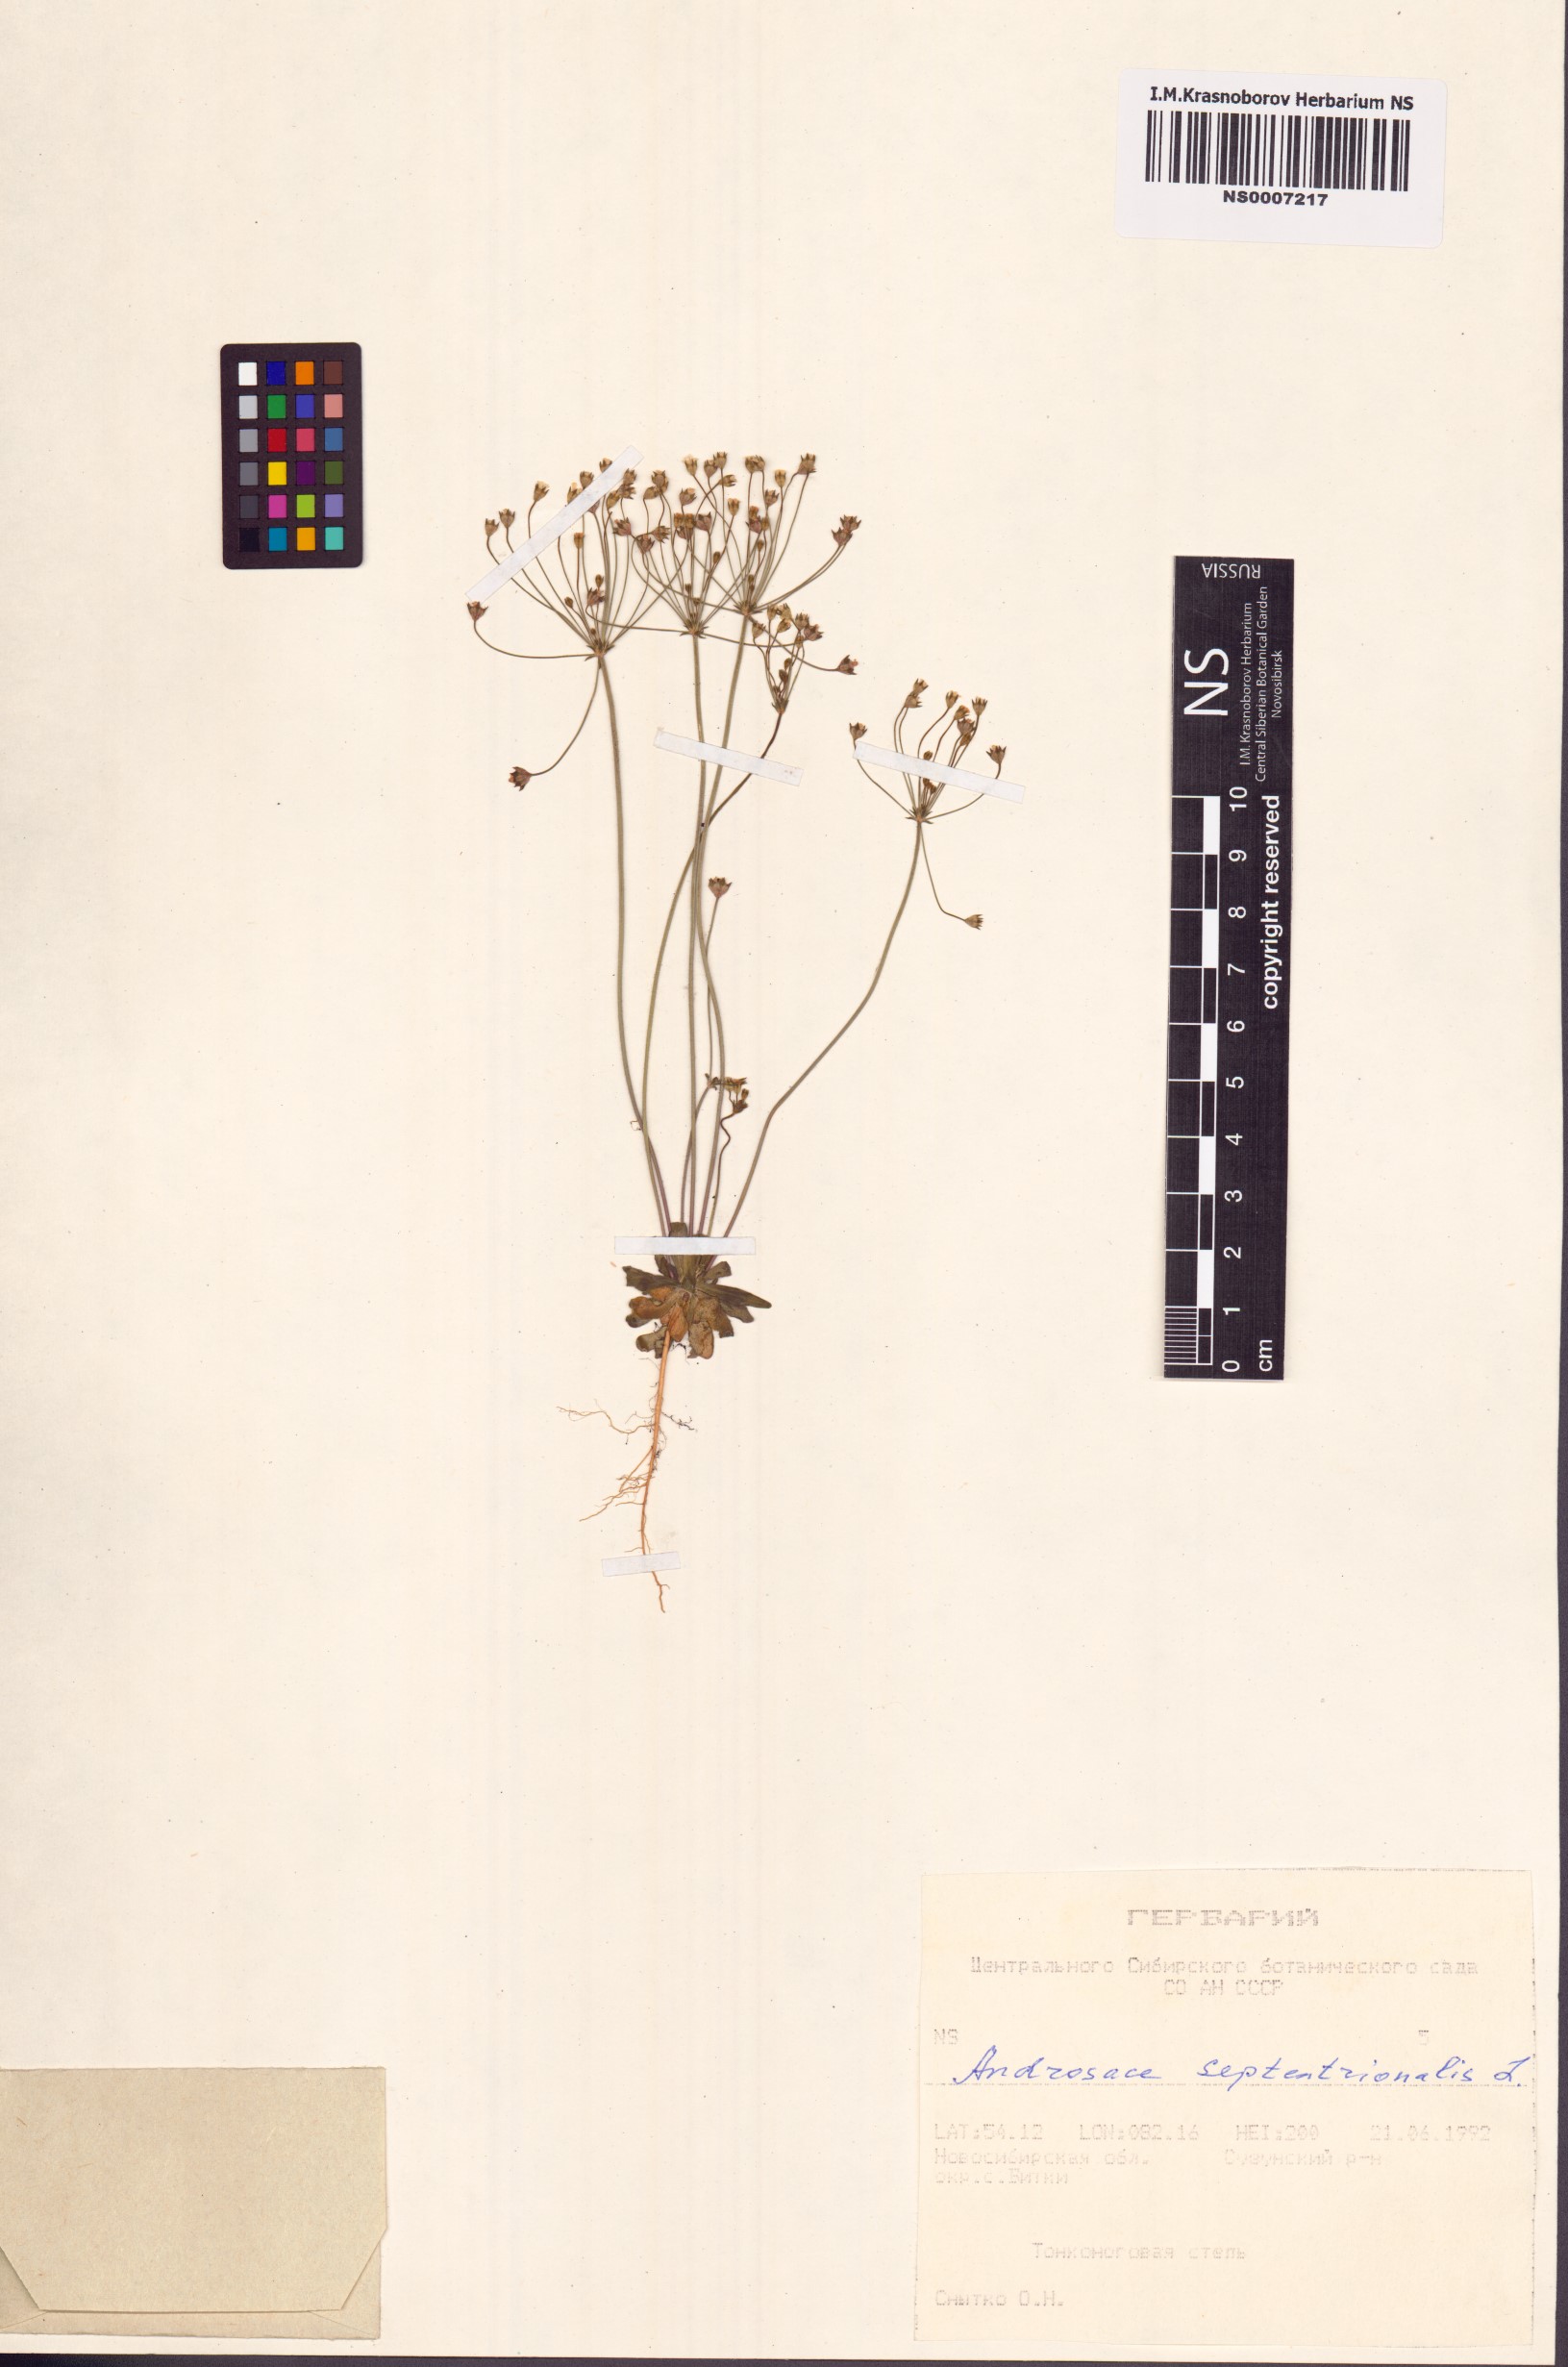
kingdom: Plantae
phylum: Tracheophyta
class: Magnoliopsida
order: Ericales
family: Primulaceae
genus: Androsace
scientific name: Androsace septentrionalis
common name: Hairy northern fairy-candelabra
